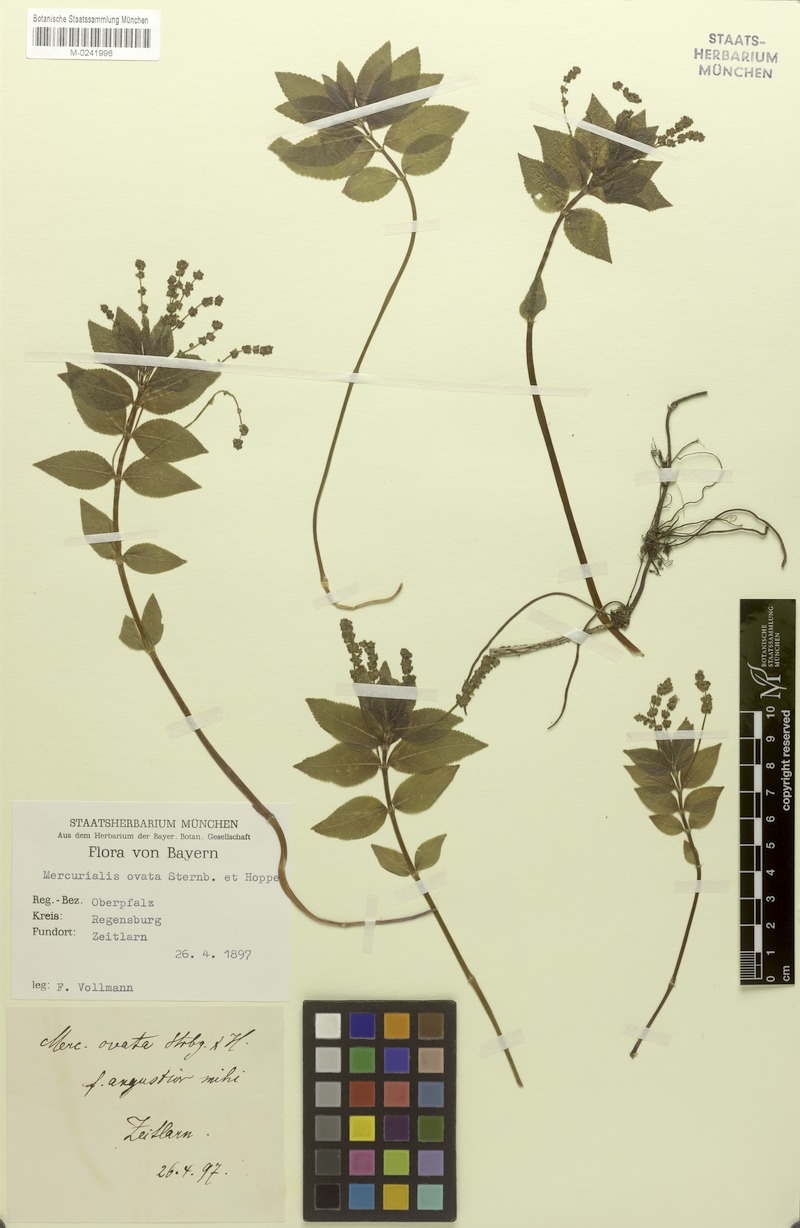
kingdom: Plantae
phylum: Tracheophyta
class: Magnoliopsida
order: Malpighiales
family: Euphorbiaceae
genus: Mercurialis
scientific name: Mercurialis ovata
